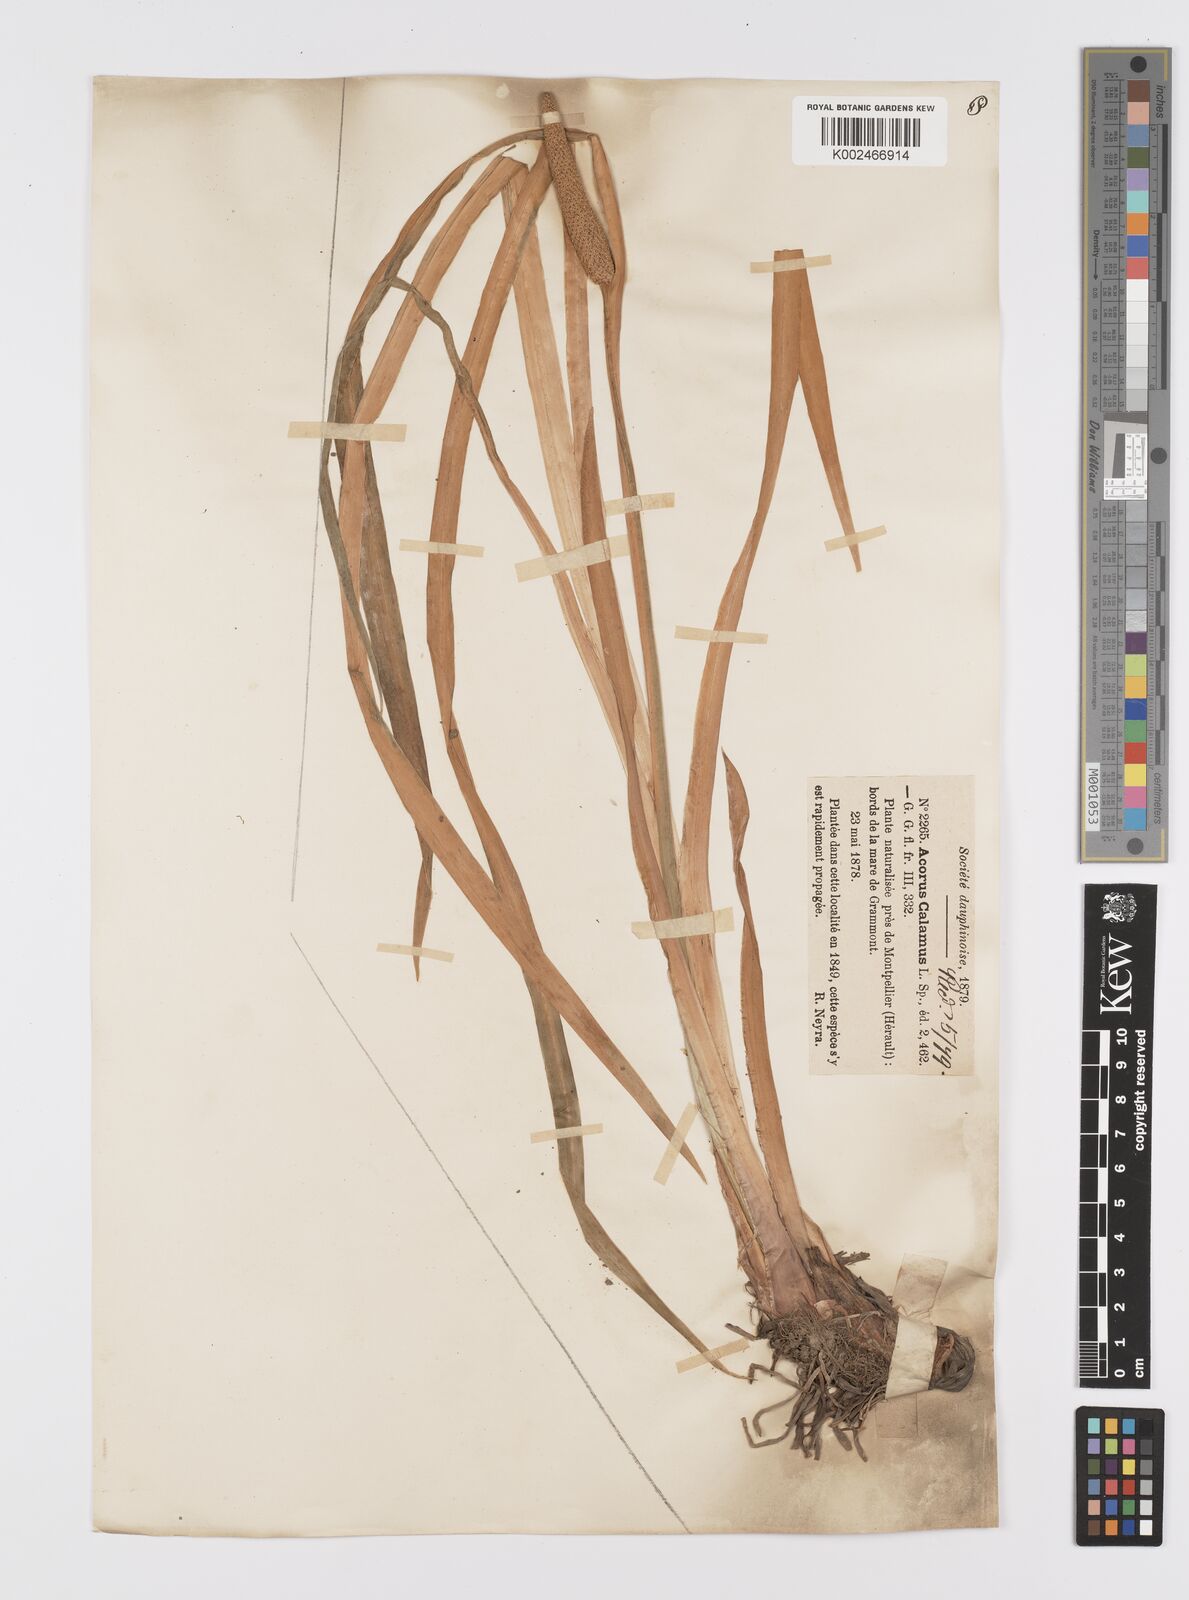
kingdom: Plantae
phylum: Tracheophyta
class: Liliopsida
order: Acorales
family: Acoraceae
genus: Acorus
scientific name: Acorus calamus
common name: Sweet-flag
